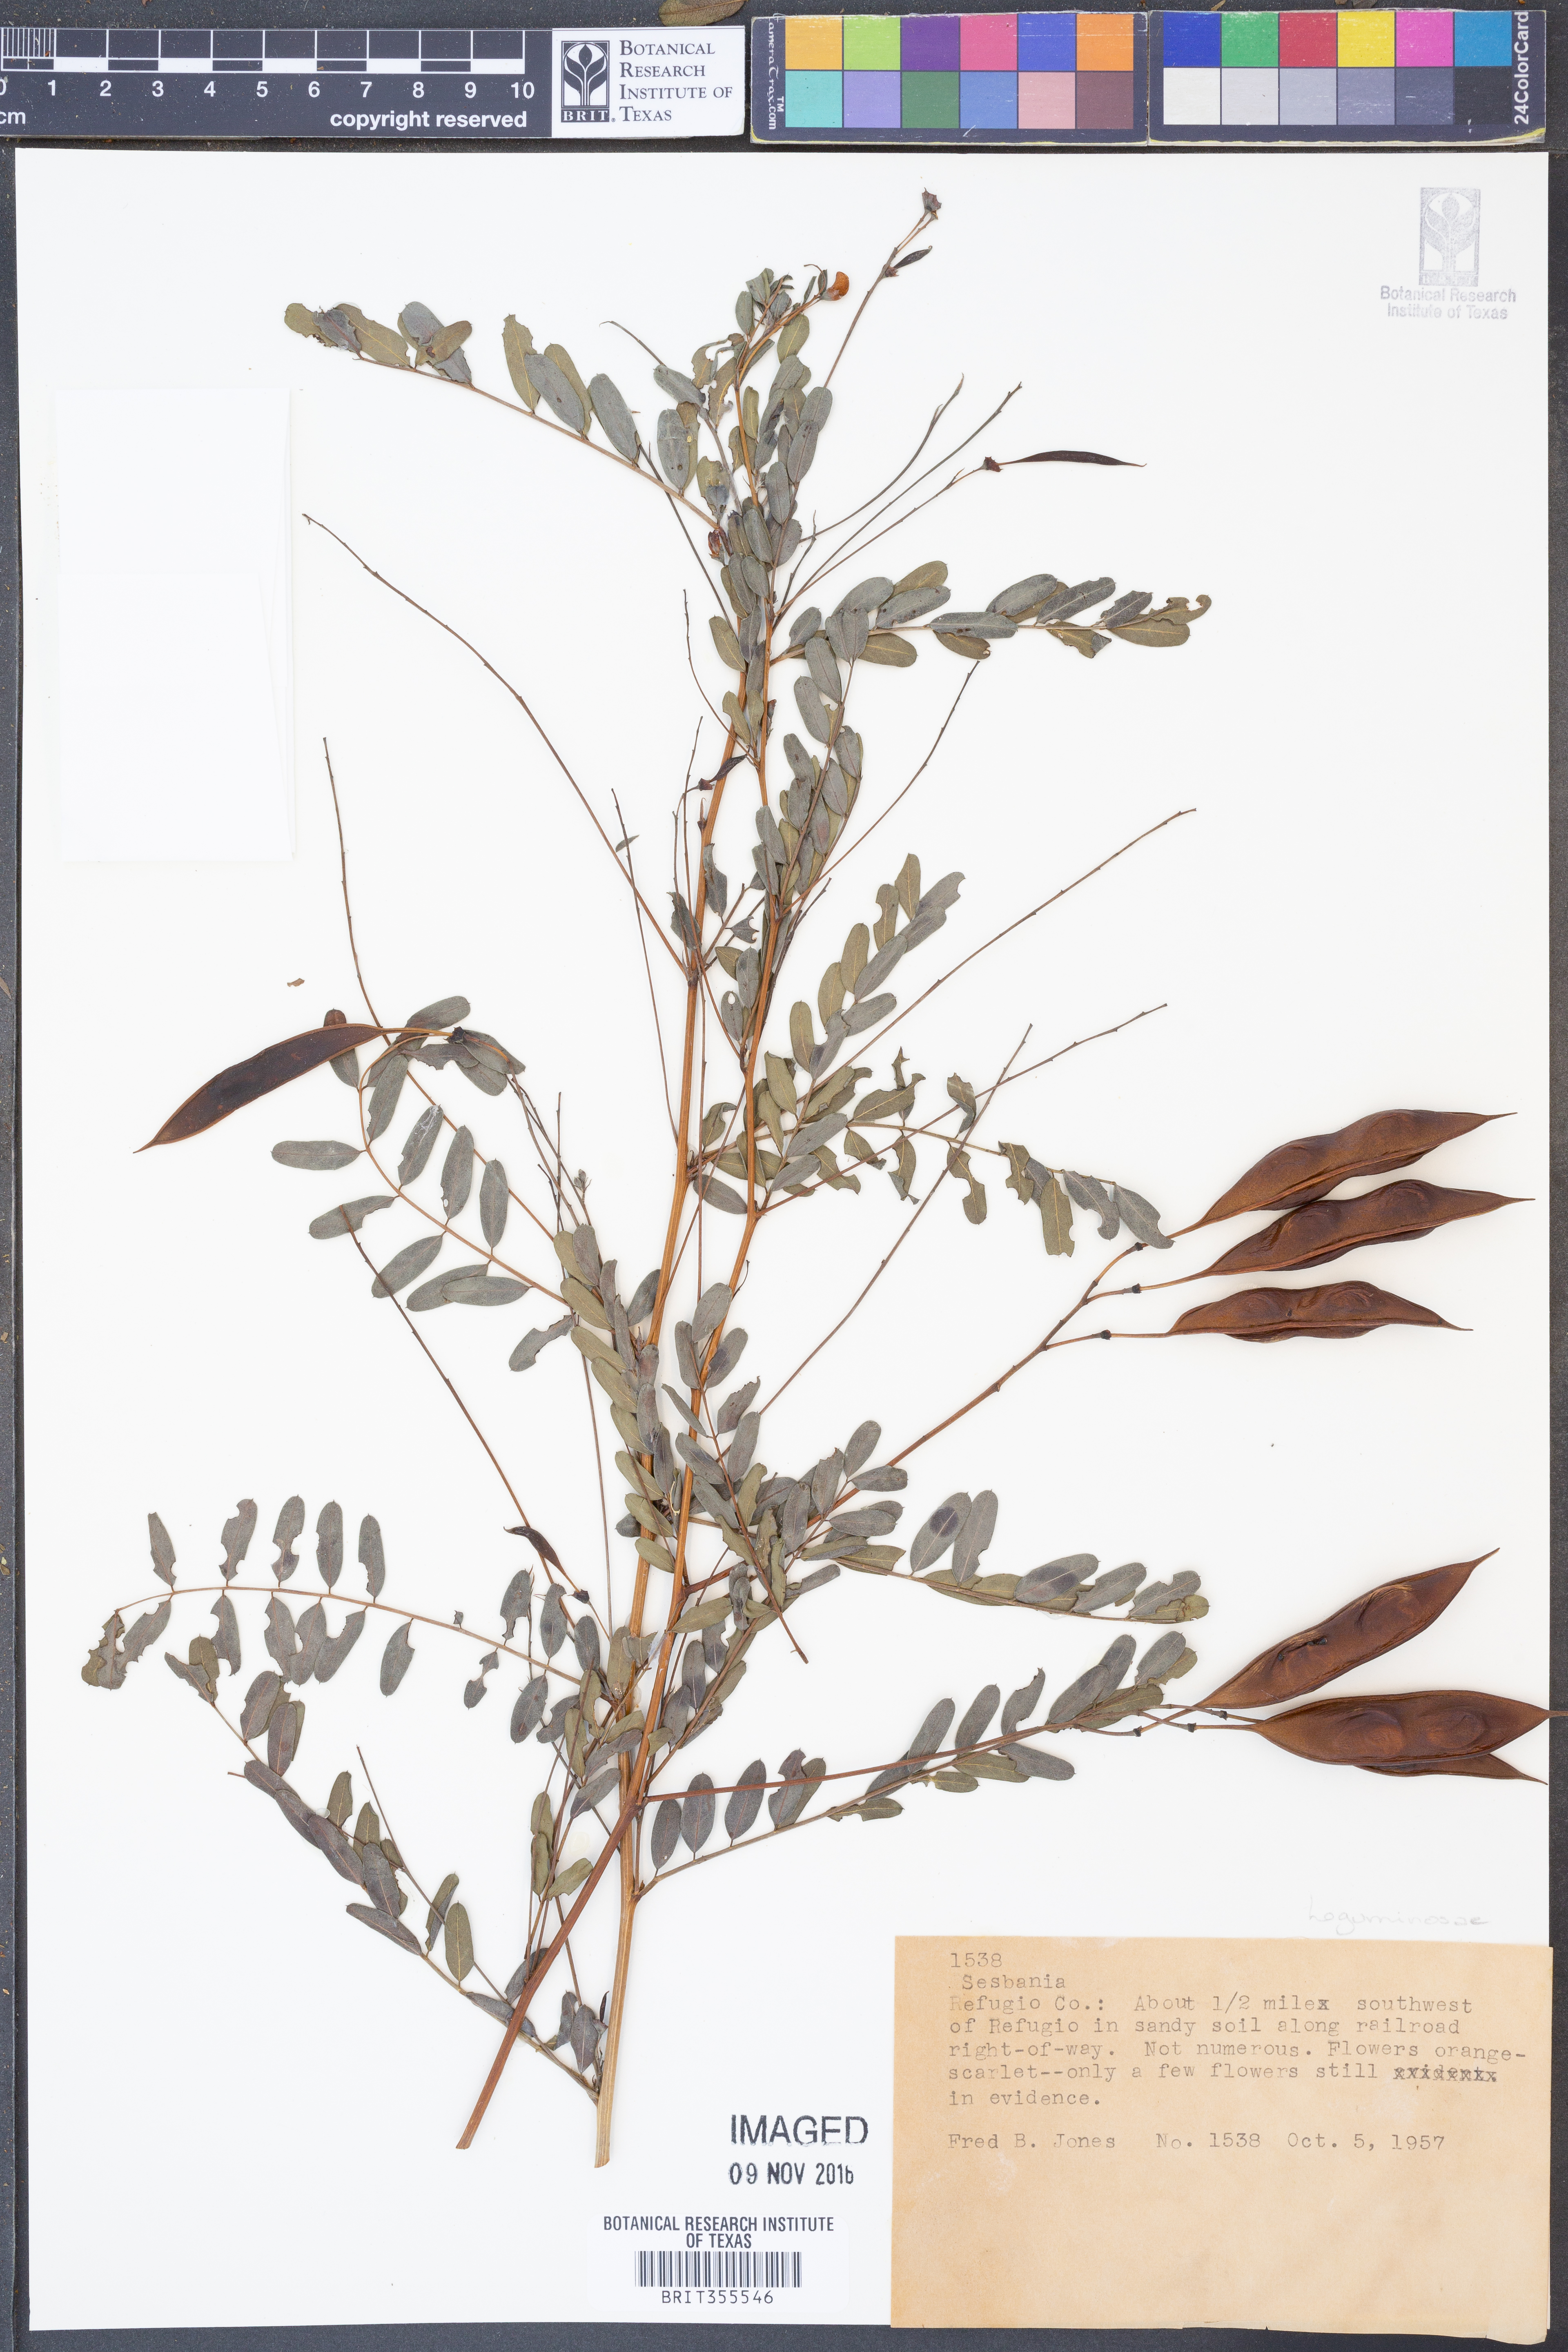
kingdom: Plantae
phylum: Tracheophyta
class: Magnoliopsida
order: Fabales
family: Fabaceae
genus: Sesbania
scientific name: Sesbania
